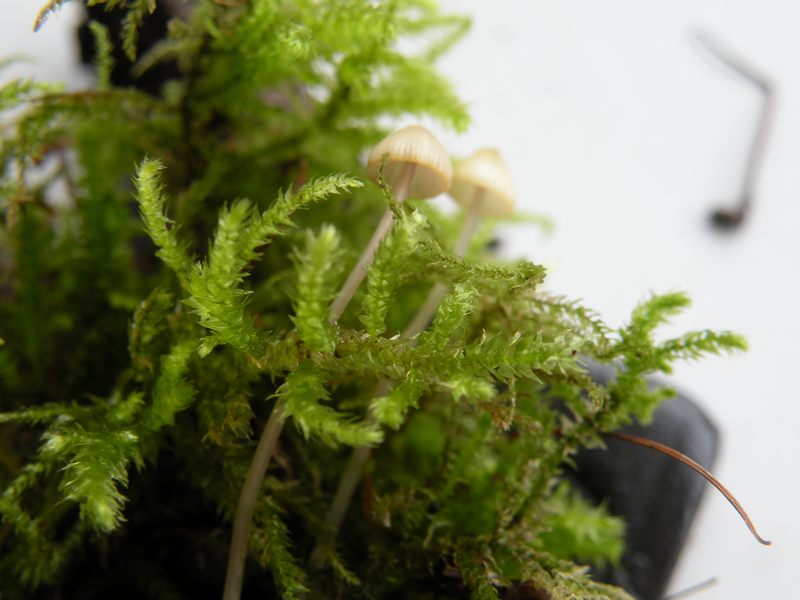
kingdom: Fungi
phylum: Basidiomycota
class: Agaricomycetes
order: Agaricales
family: Mycenaceae
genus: Mycena
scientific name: Mycena amicta
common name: iris-huesvamp
